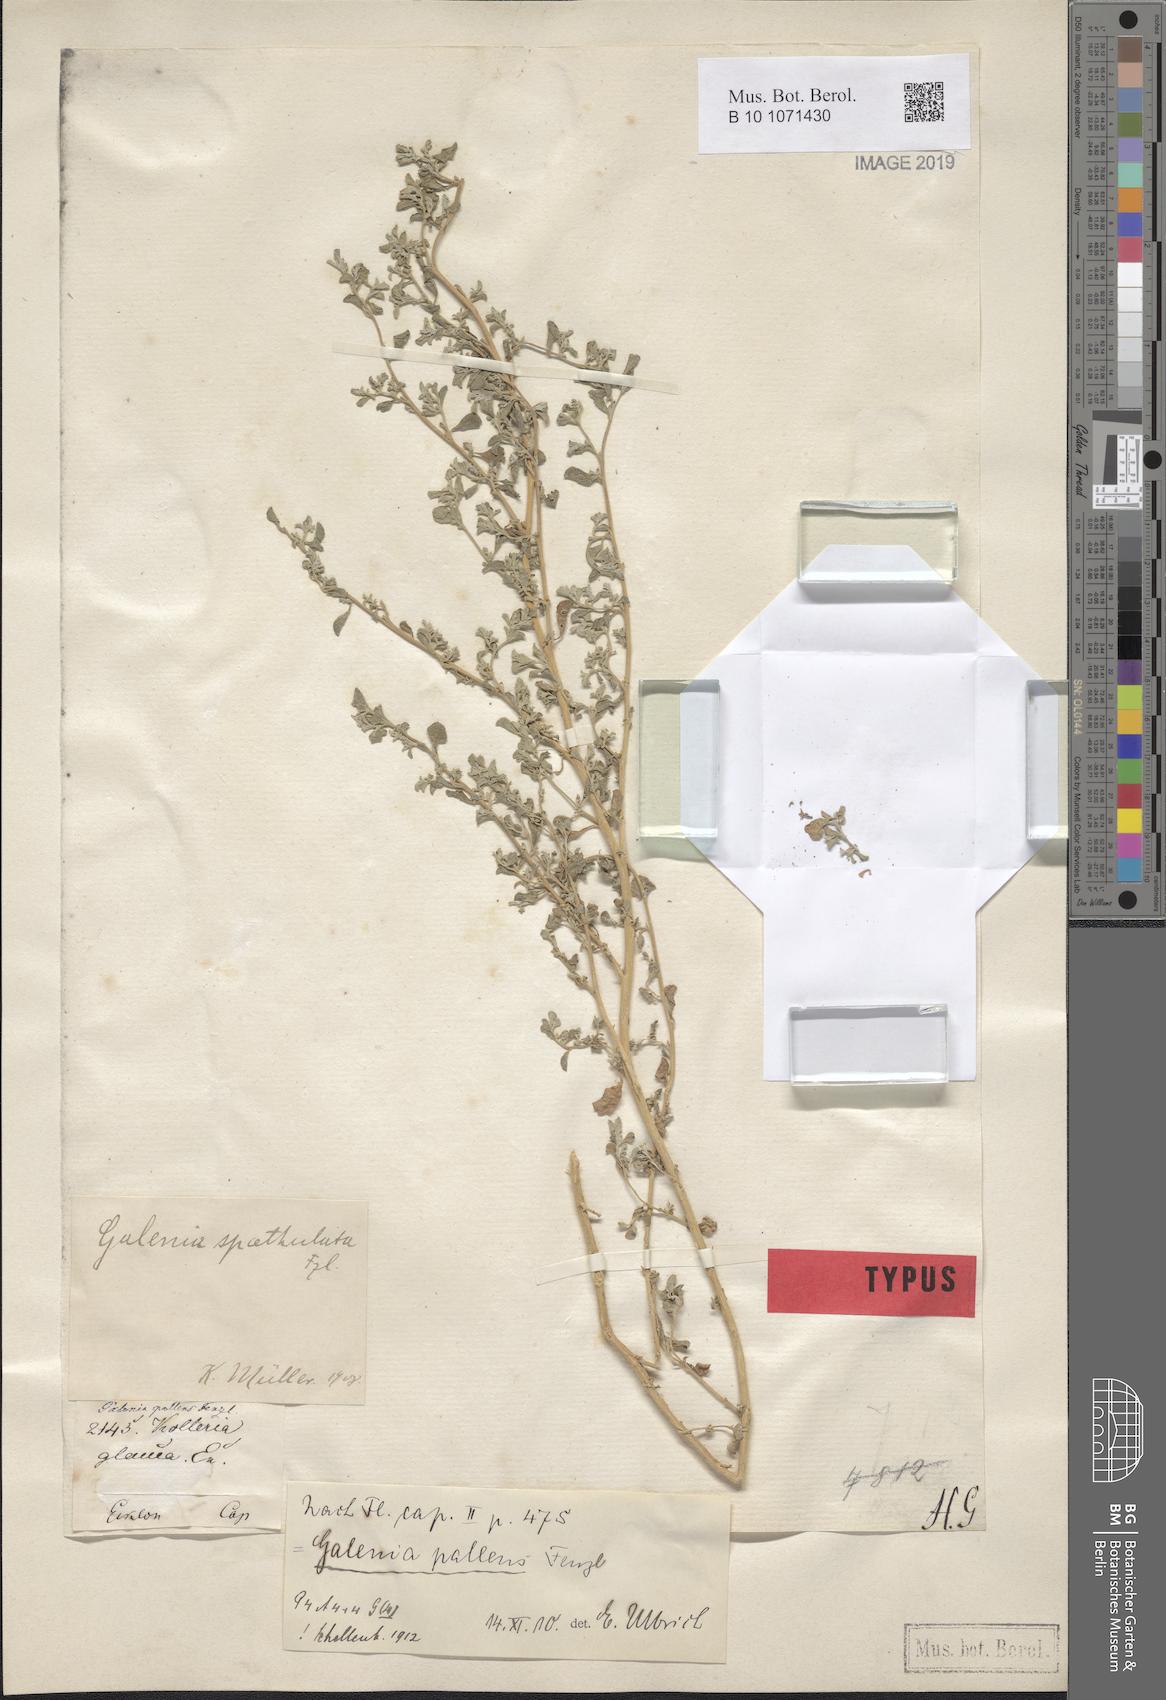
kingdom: Plantae
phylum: Tracheophyta
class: Magnoliopsida
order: Caryophyllales
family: Aizoaceae
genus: Aizoon
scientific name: Aizoon pallens
